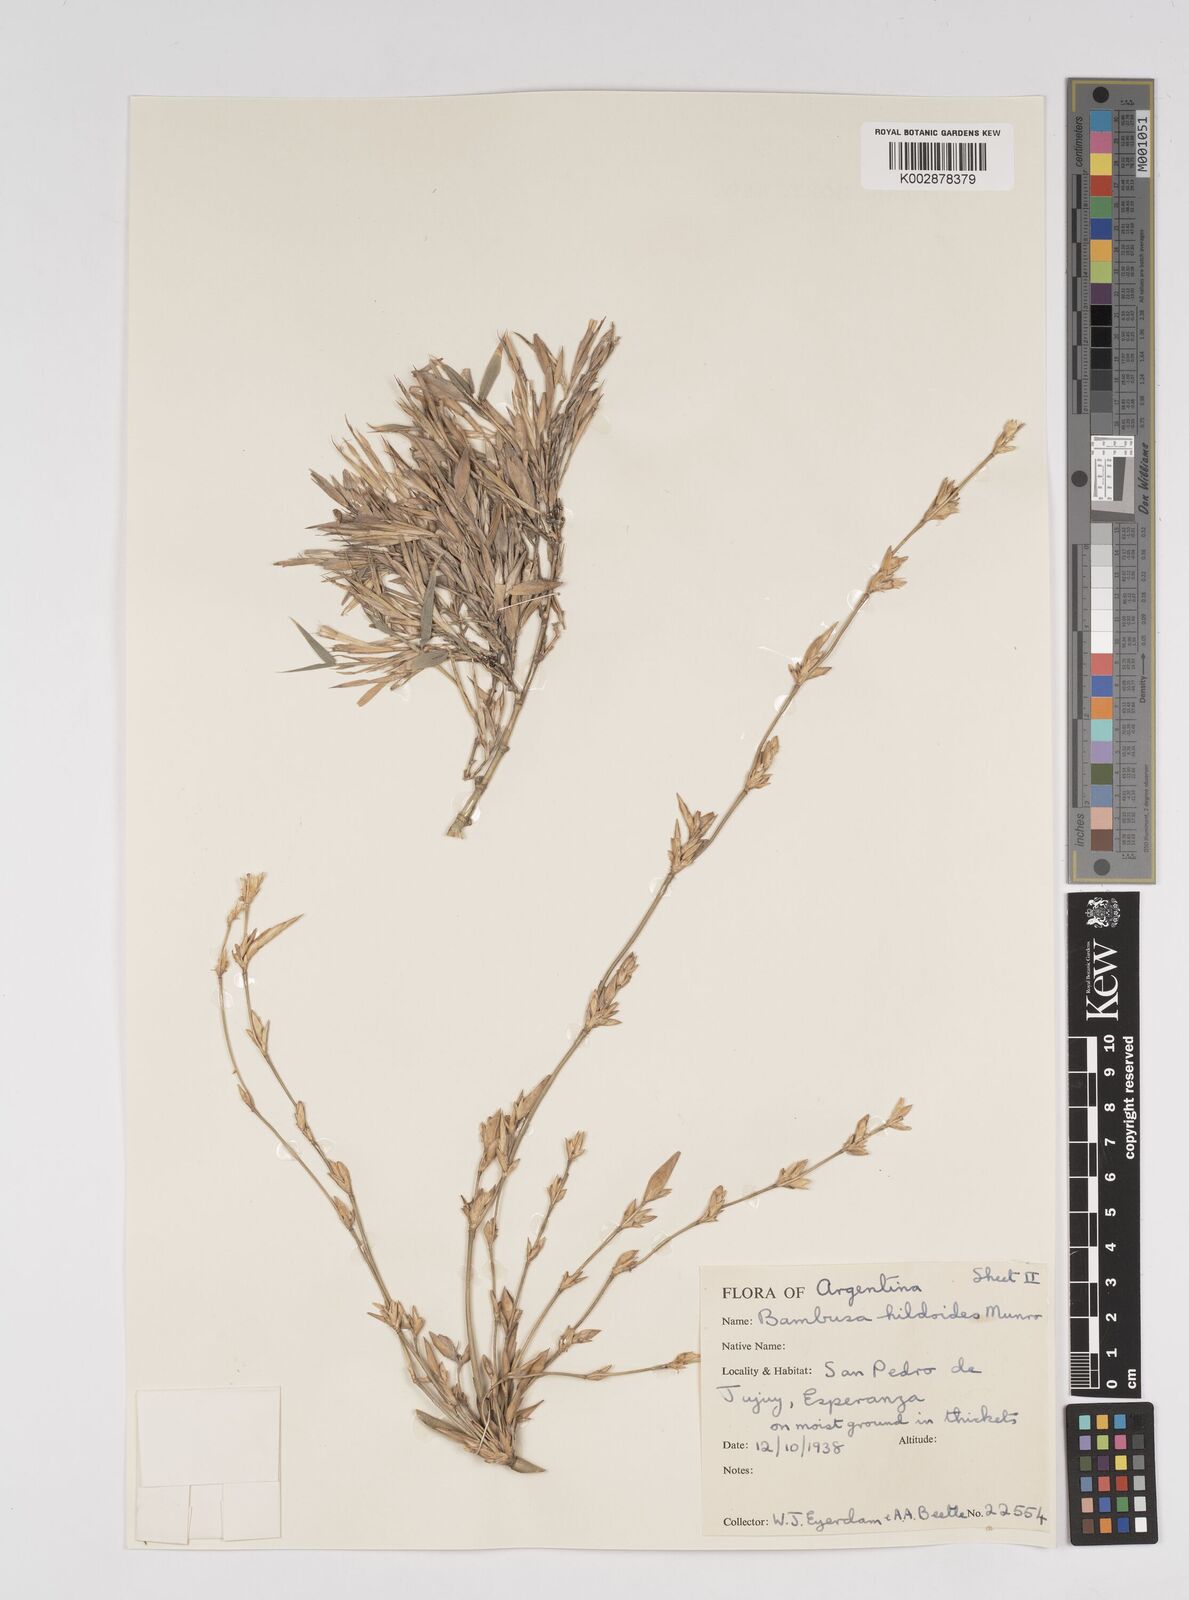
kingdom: Plantae
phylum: Tracheophyta
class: Liliopsida
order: Poales
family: Poaceae
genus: Bambusa
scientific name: Bambusa tuldoides
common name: Verdant bamboo
